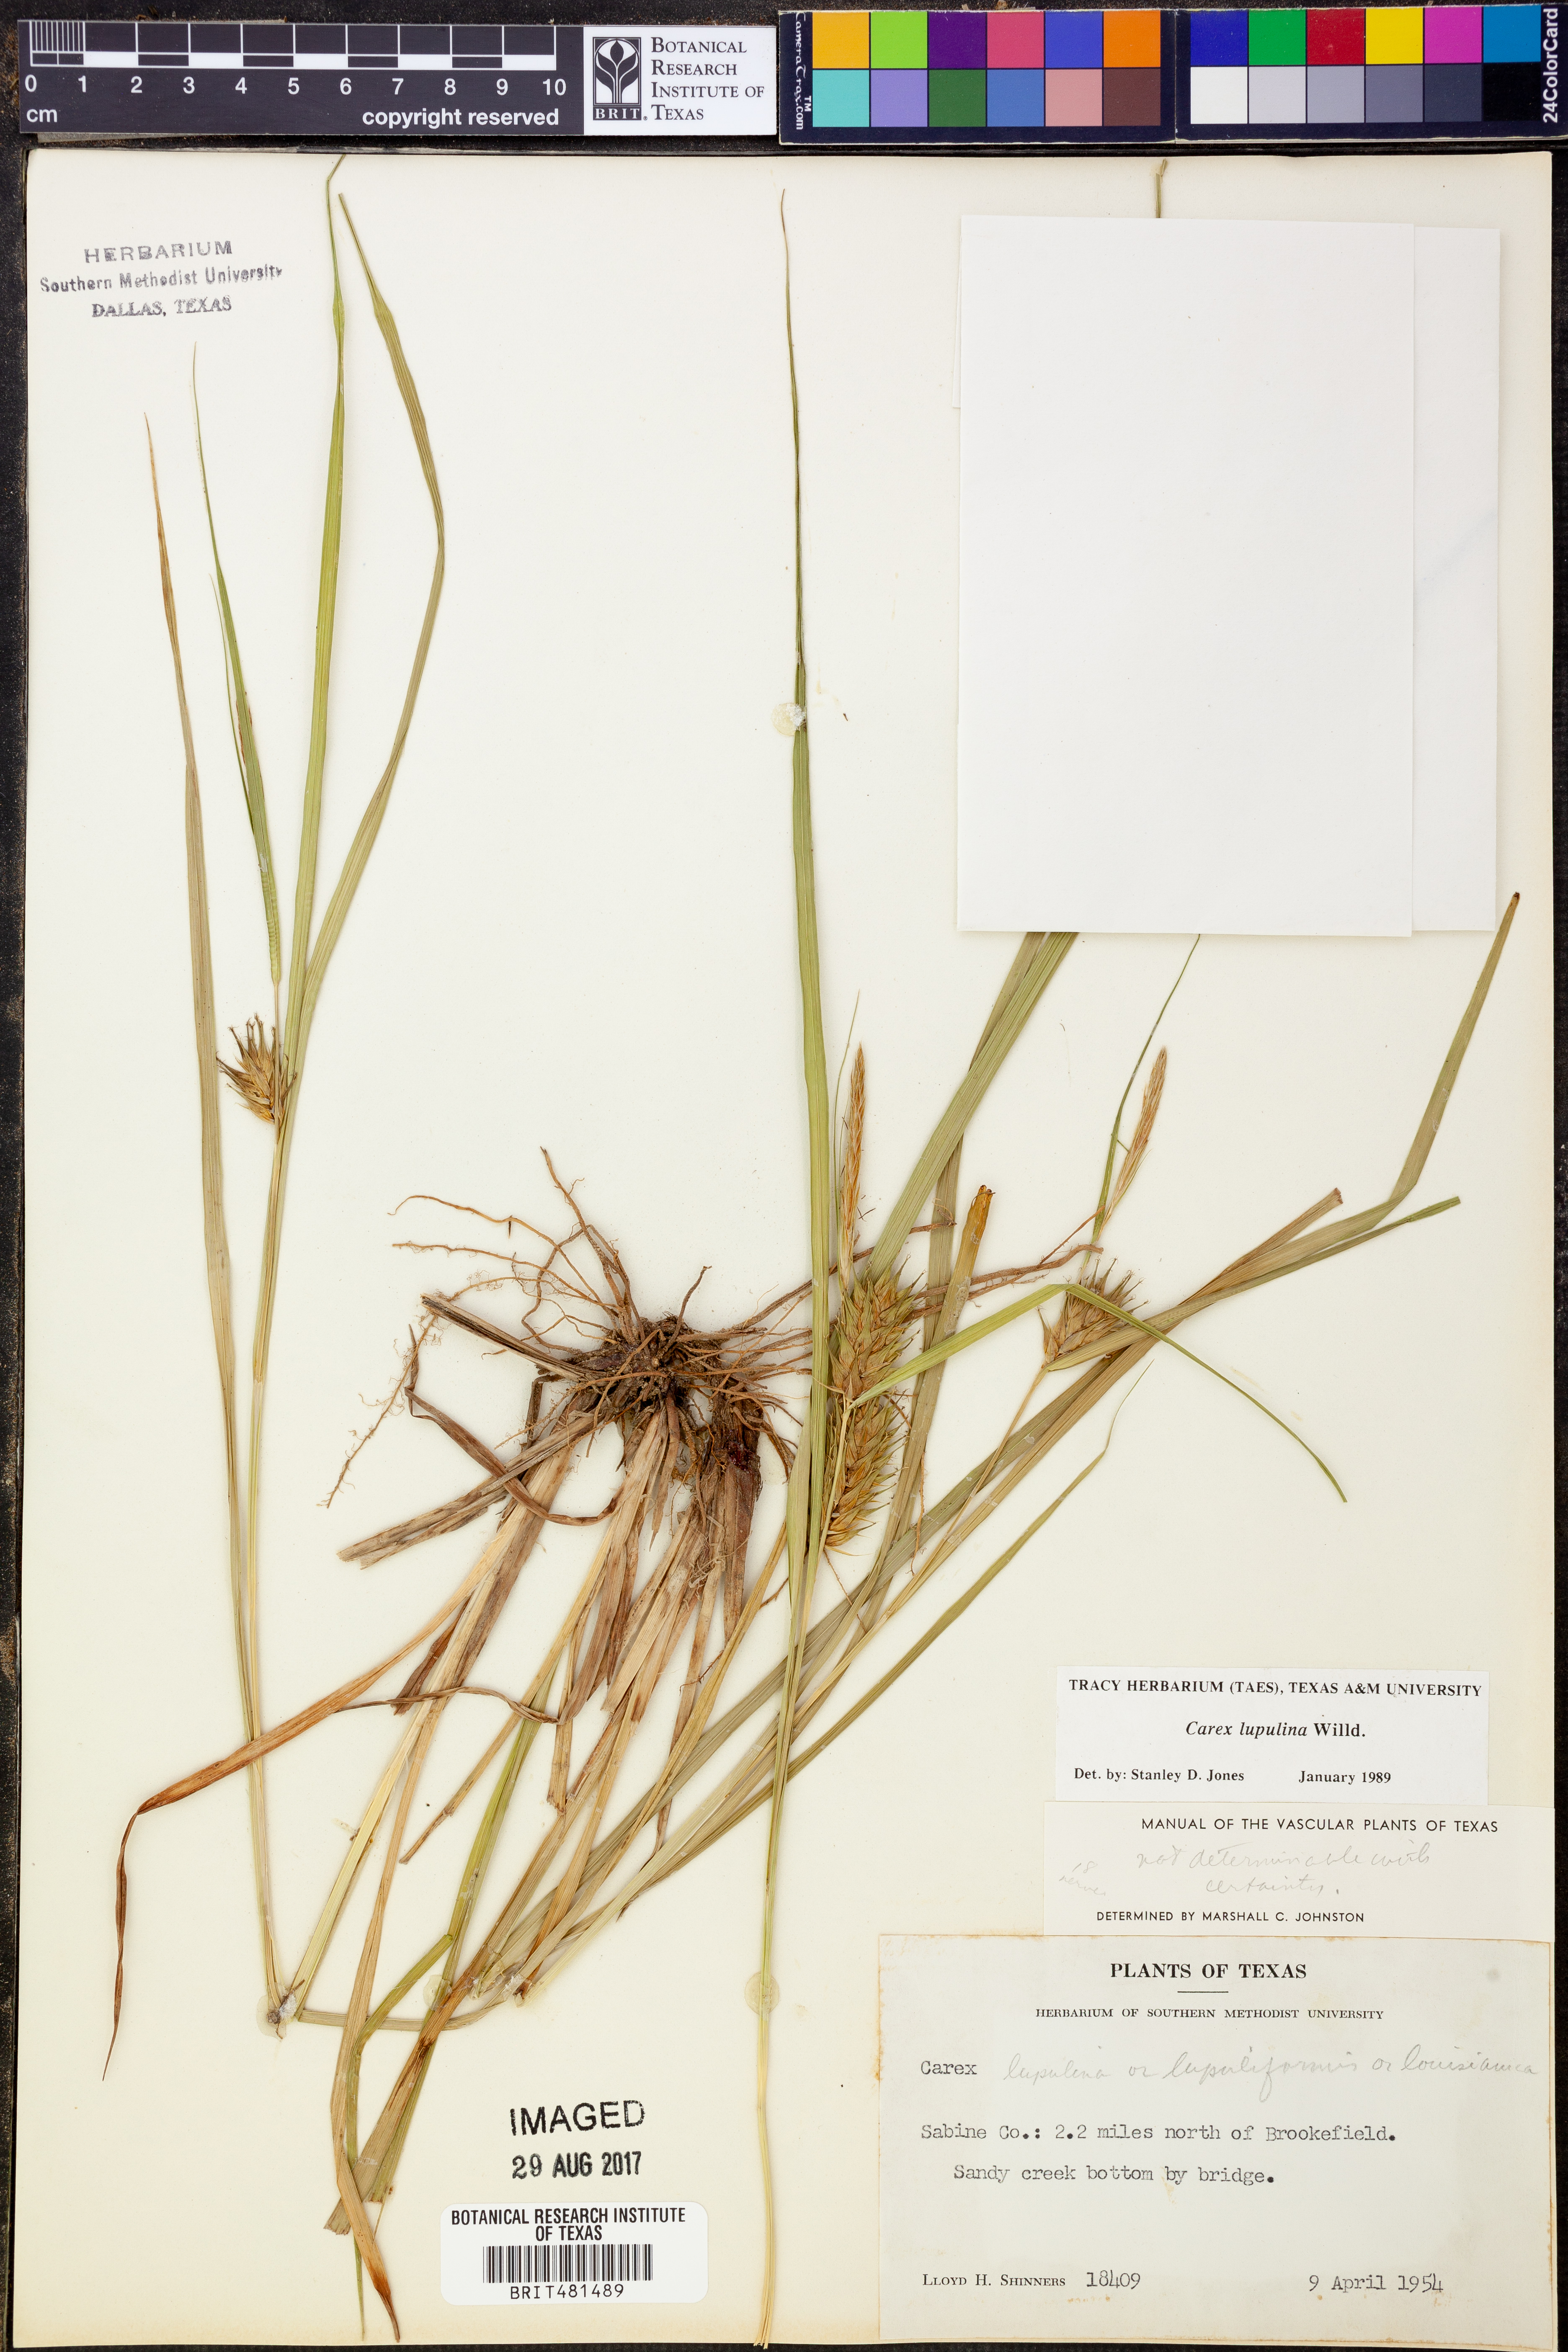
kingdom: Plantae
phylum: Tracheophyta
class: Liliopsida
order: Poales
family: Cyperaceae
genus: Carex
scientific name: Carex lupulina
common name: Hop sedge
